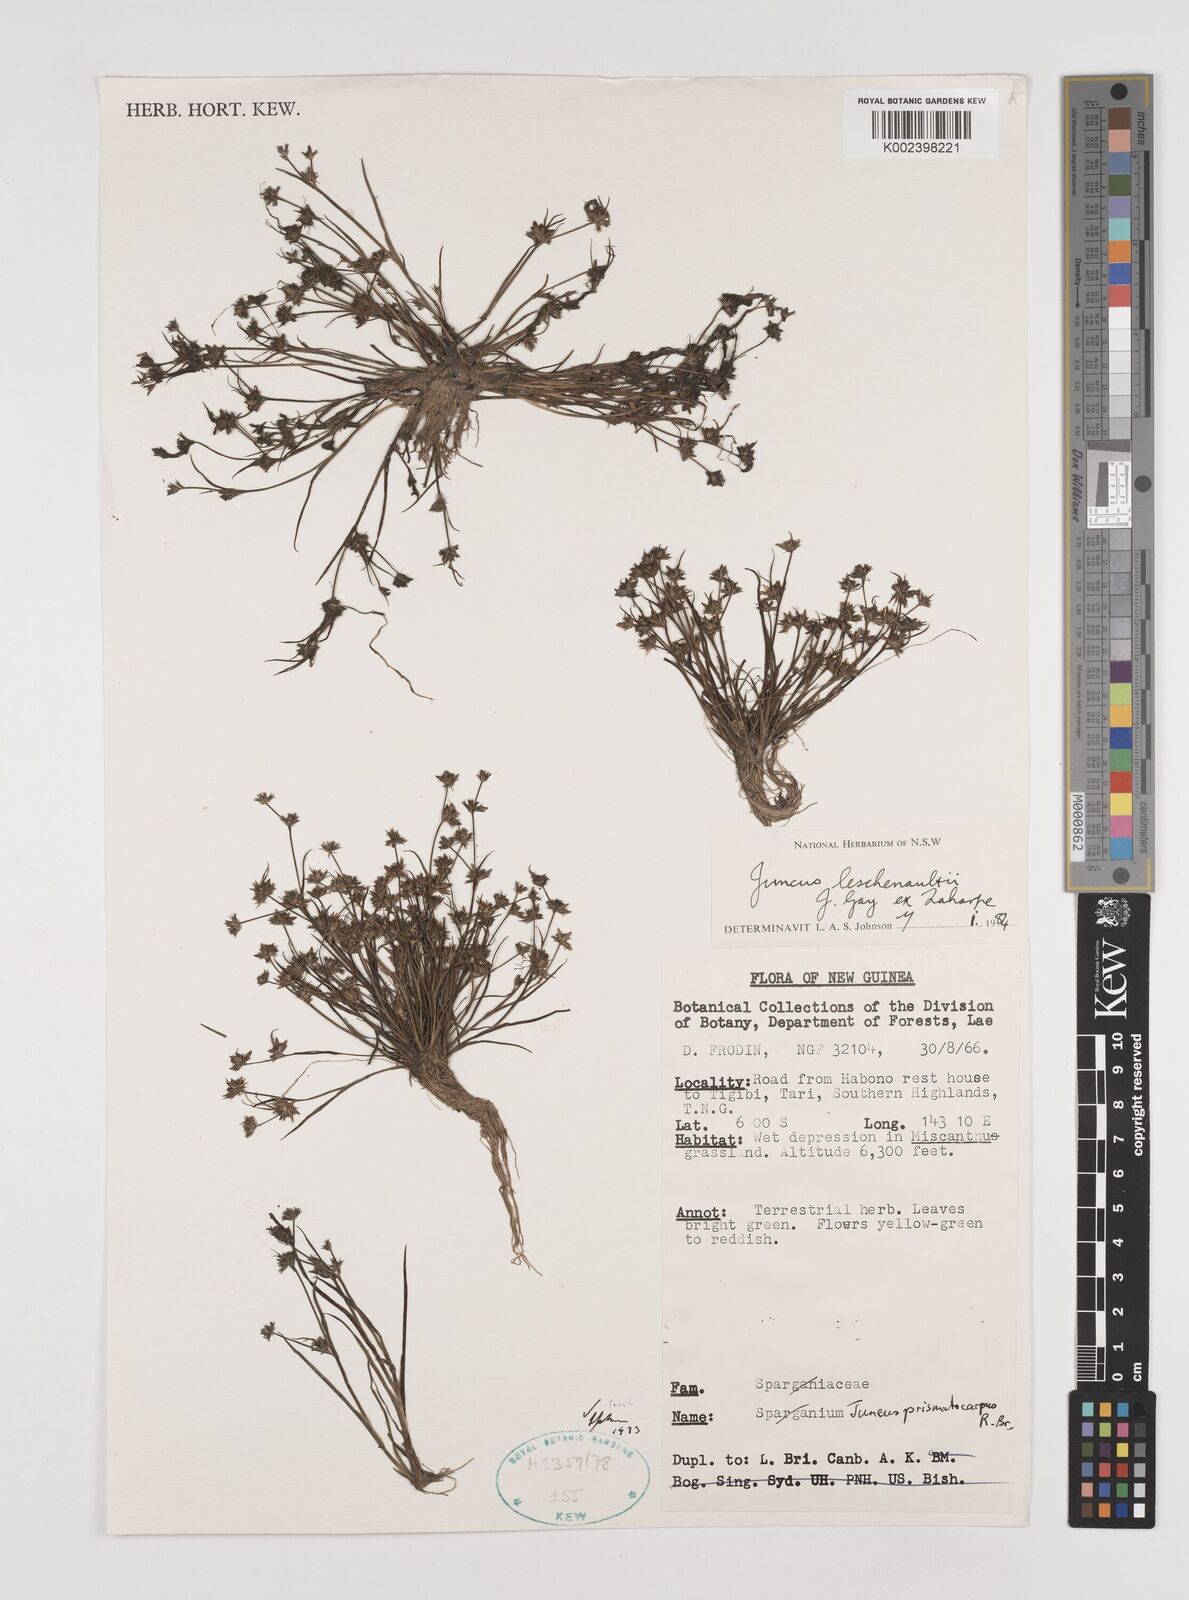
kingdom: Plantae
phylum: Tracheophyta
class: Liliopsida
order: Poales
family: Juncaceae
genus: Juncus
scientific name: Juncus prismatocarpus
